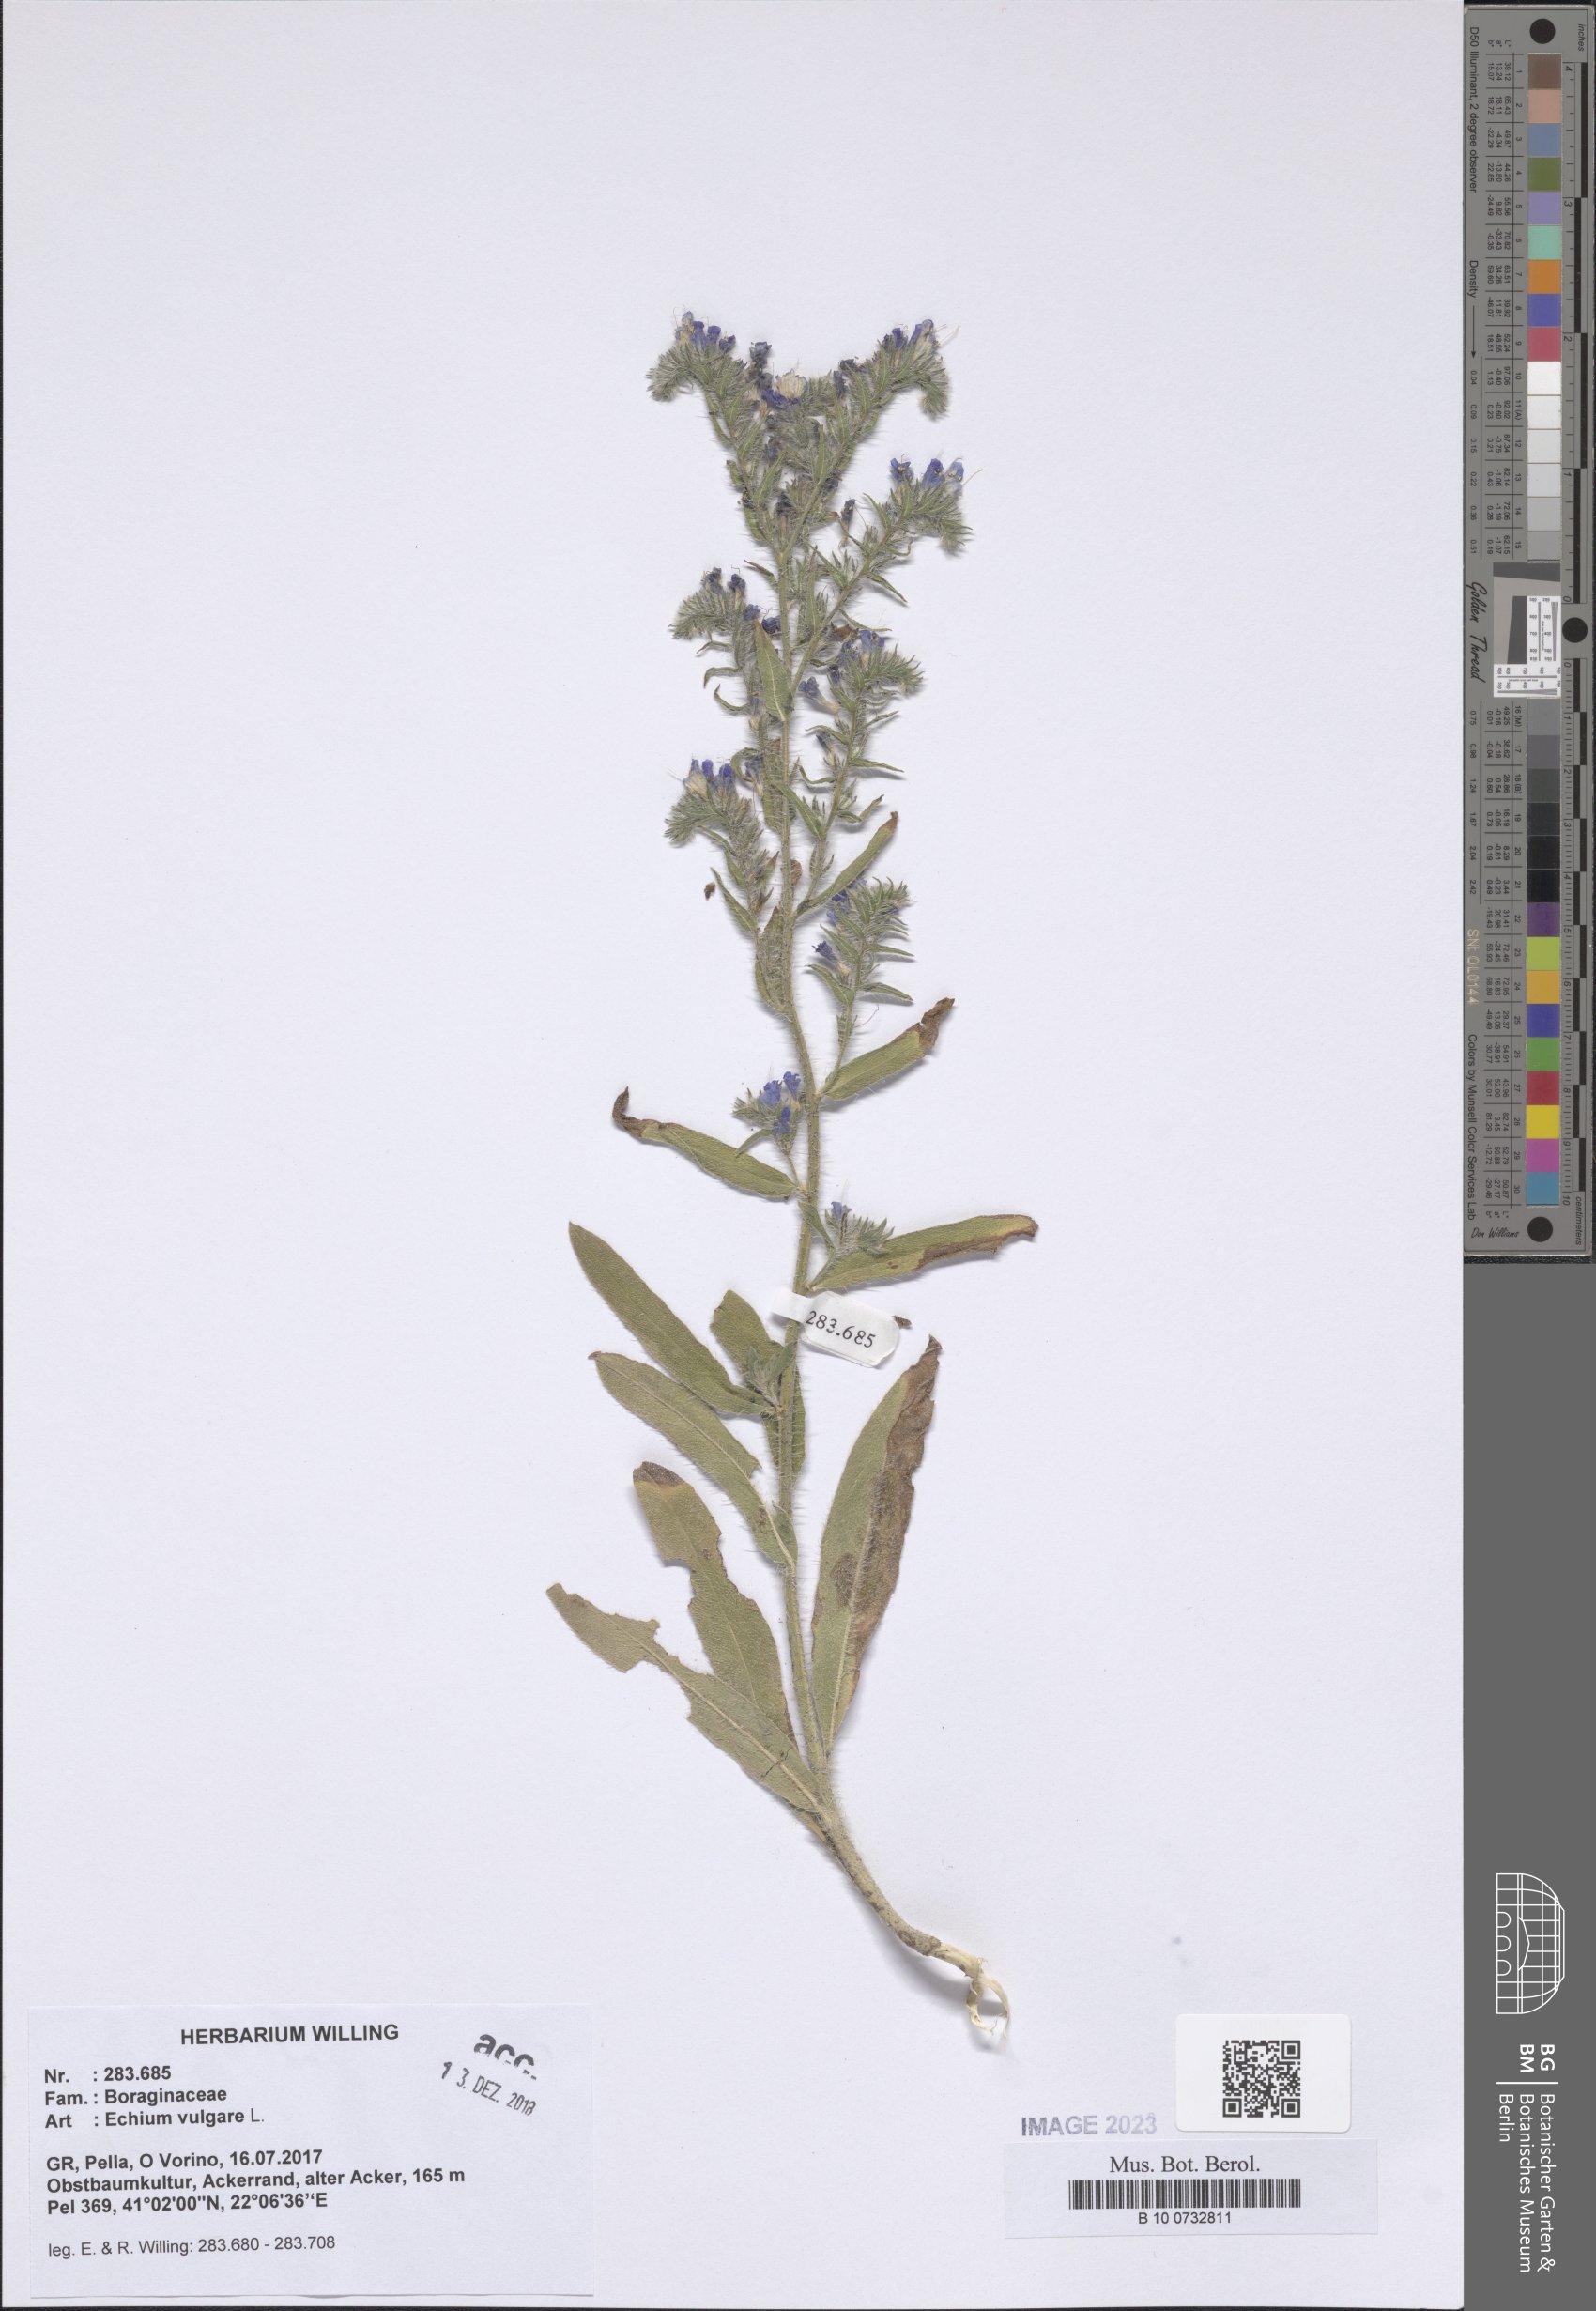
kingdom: Plantae
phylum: Tracheophyta
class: Magnoliopsida
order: Boraginales
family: Boraginaceae
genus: Echium
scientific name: Echium vulgare
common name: Common viper's bugloss
